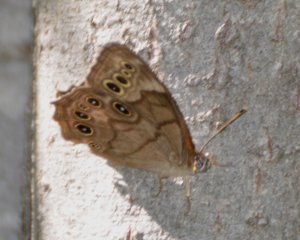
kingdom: Animalia
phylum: Arthropoda
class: Insecta
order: Lepidoptera
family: Nymphalidae
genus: Lethe
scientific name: Lethe anthedon
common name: Northern Pearly-Eye
